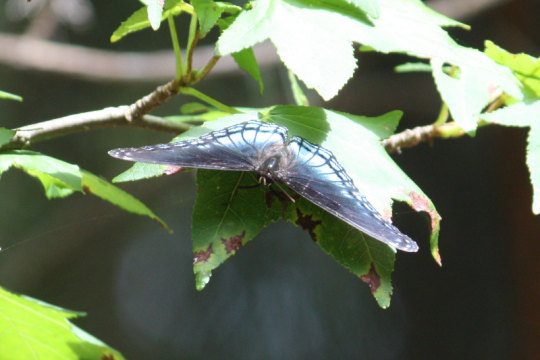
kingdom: Animalia
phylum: Arthropoda
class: Insecta
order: Lepidoptera
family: Nymphalidae
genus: Limenitis
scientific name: Limenitis arthemis
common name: Red-spotted Admiral
